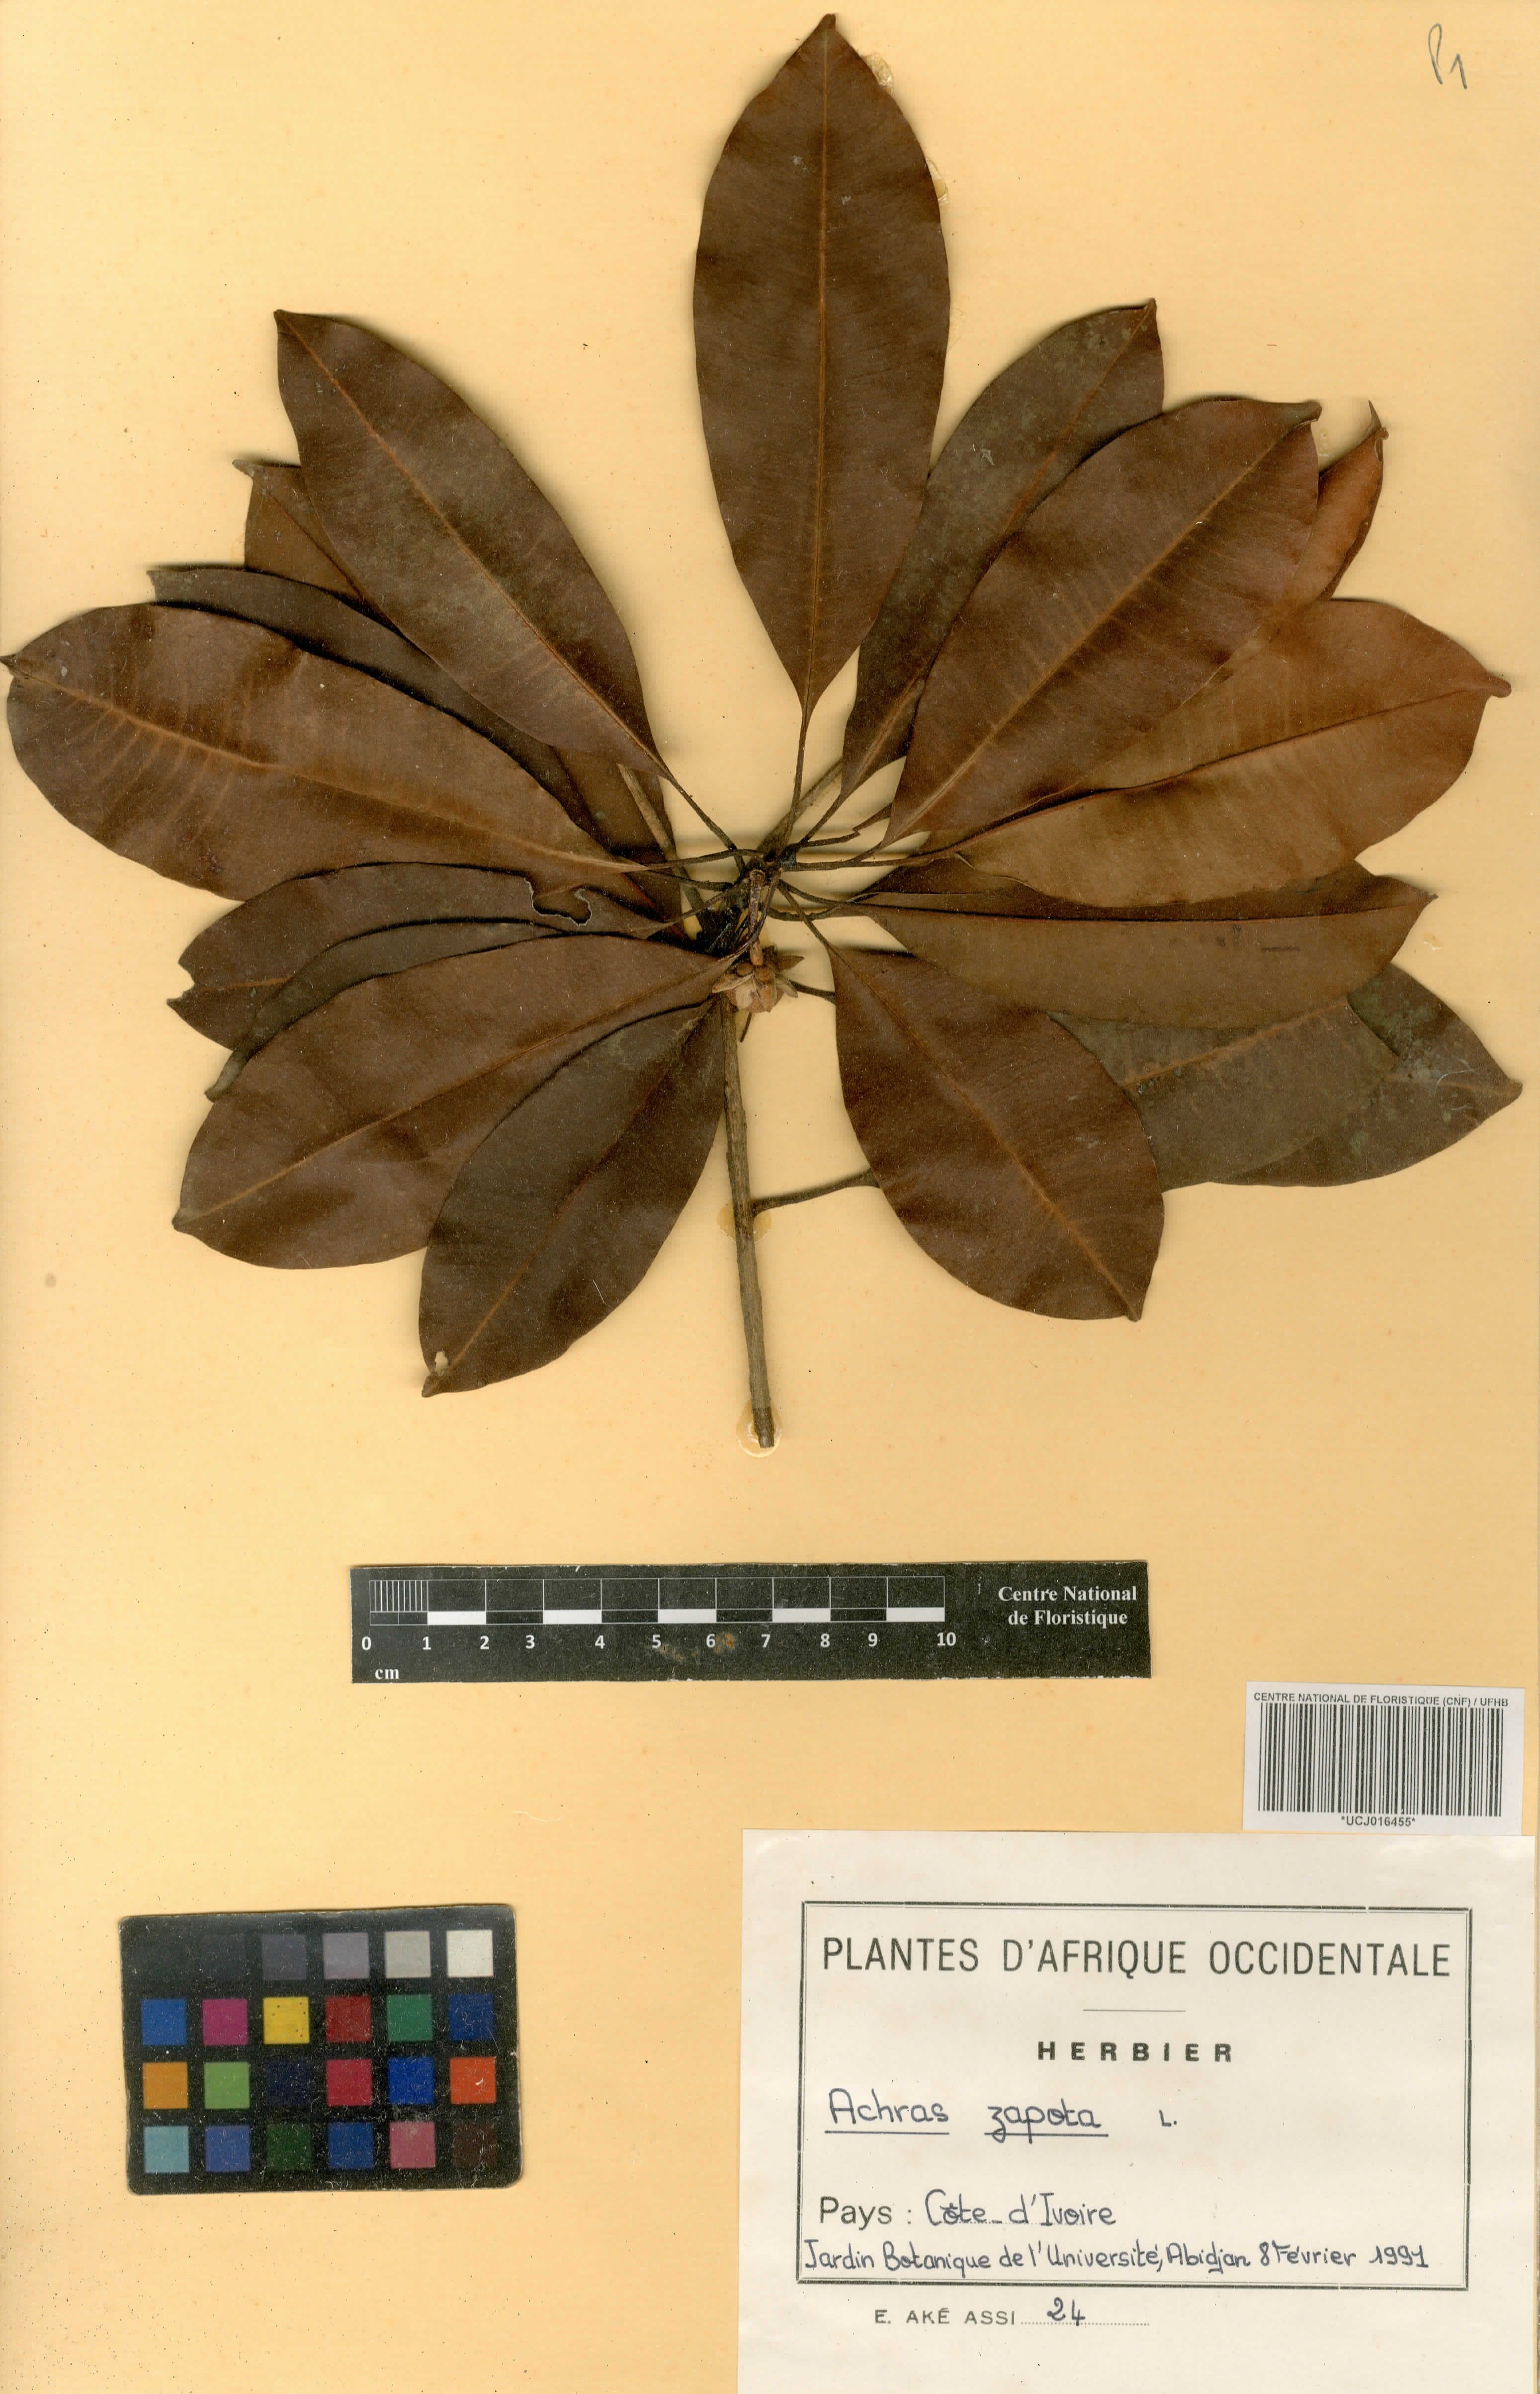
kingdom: Plantae
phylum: Tracheophyta
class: Magnoliopsida
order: Ericales
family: Sapotaceae
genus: Manilkara
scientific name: Manilkara zapota
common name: Sapodilla
